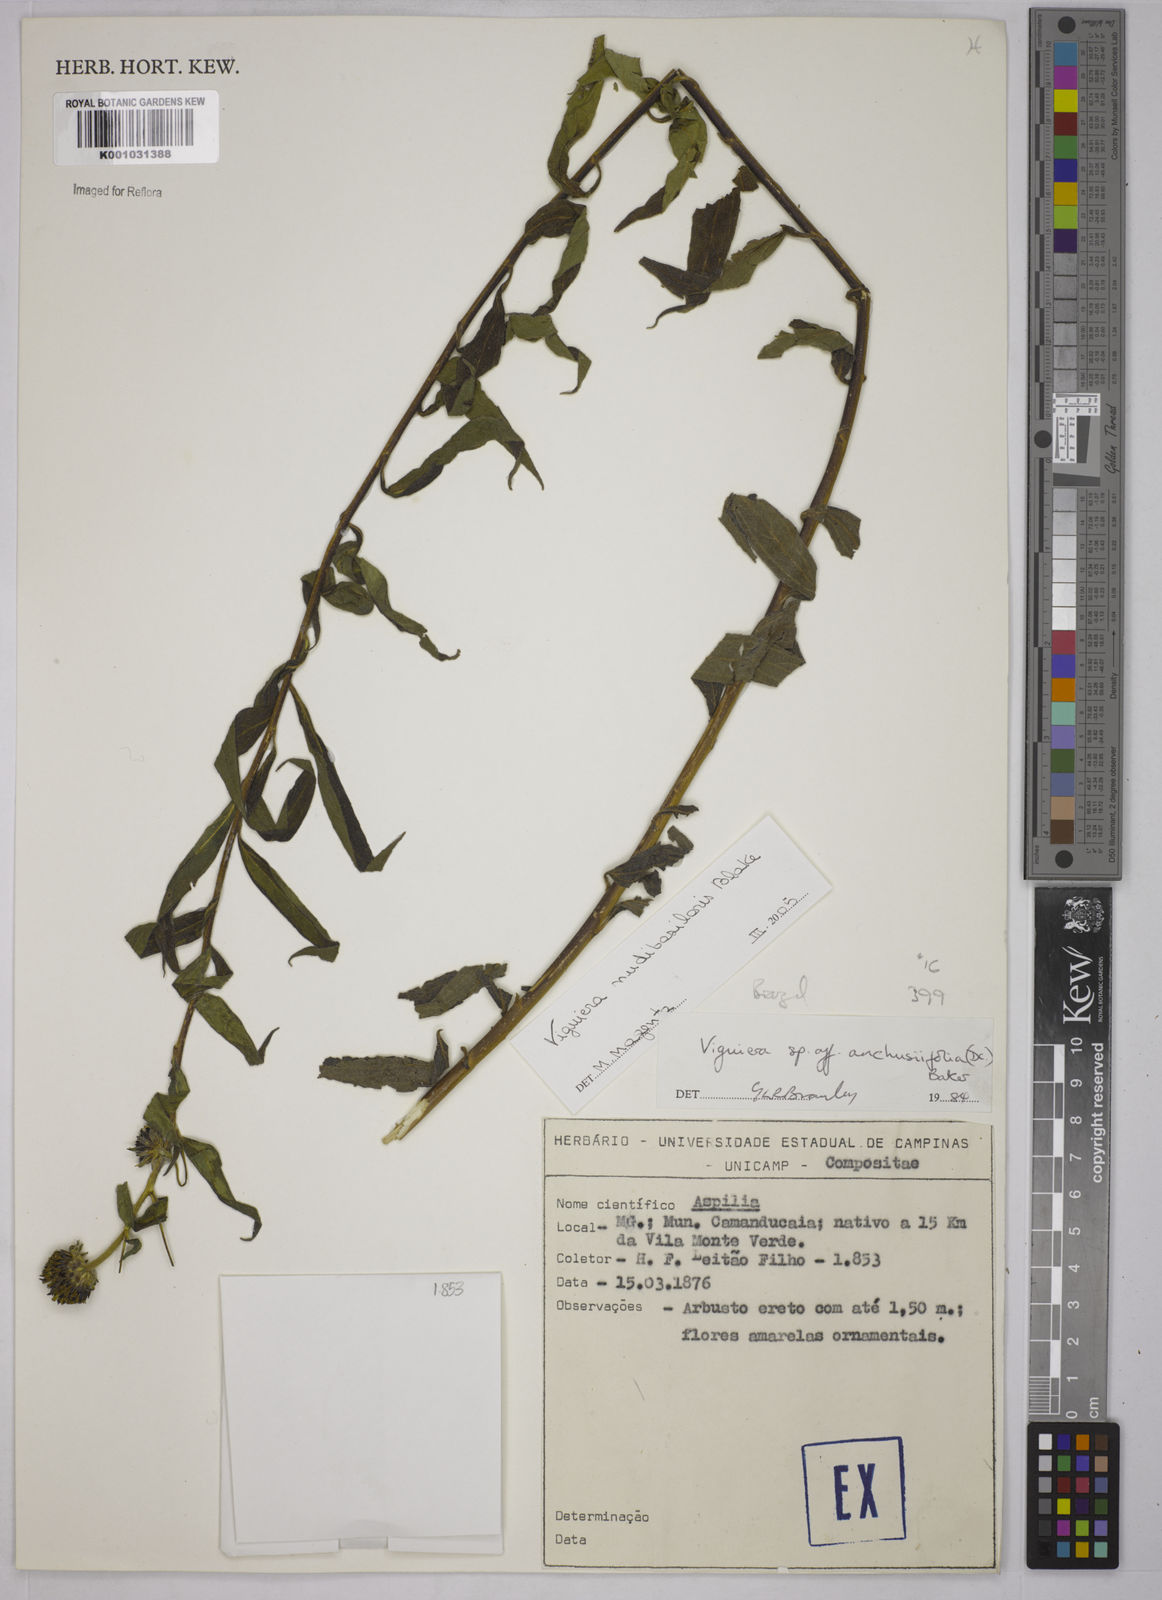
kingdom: Plantae
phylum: Tracheophyta
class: Magnoliopsida
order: Asterales
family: Asteraceae
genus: Aldama
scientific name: Aldama nudibasilaris
